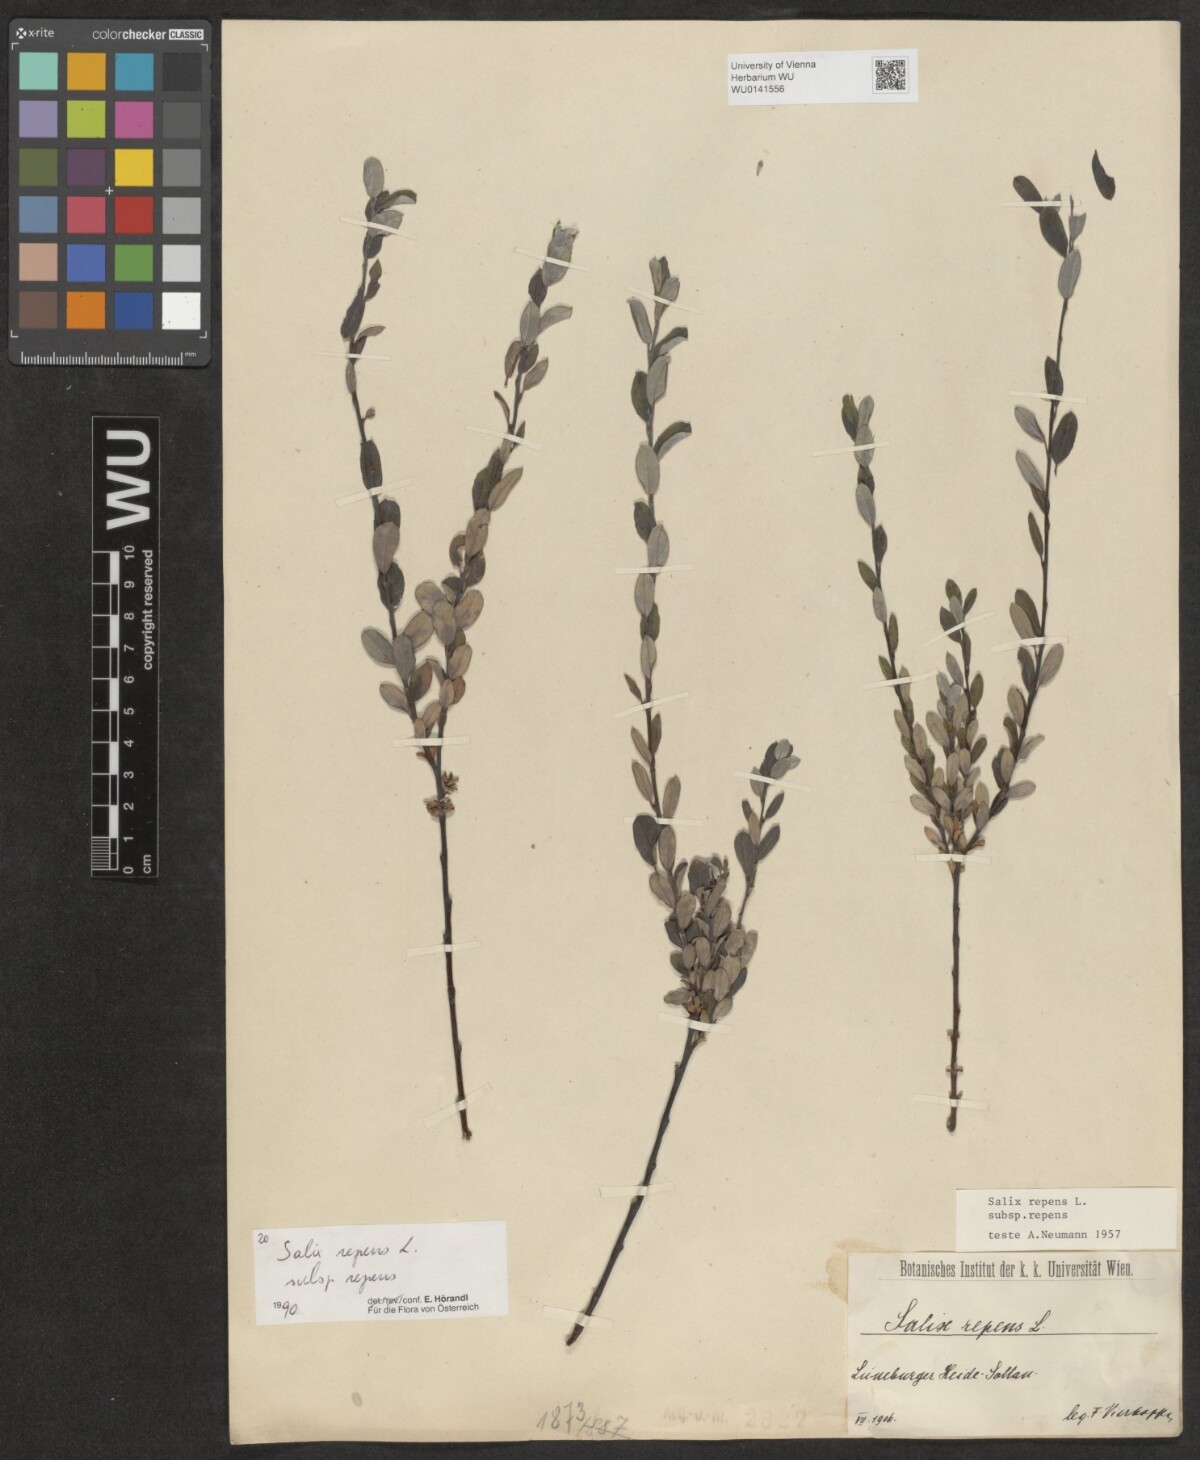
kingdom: Plantae
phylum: Tracheophyta
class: Magnoliopsida
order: Malpighiales
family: Salicaceae
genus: Salix
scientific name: Salix repens
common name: Creeping willow
